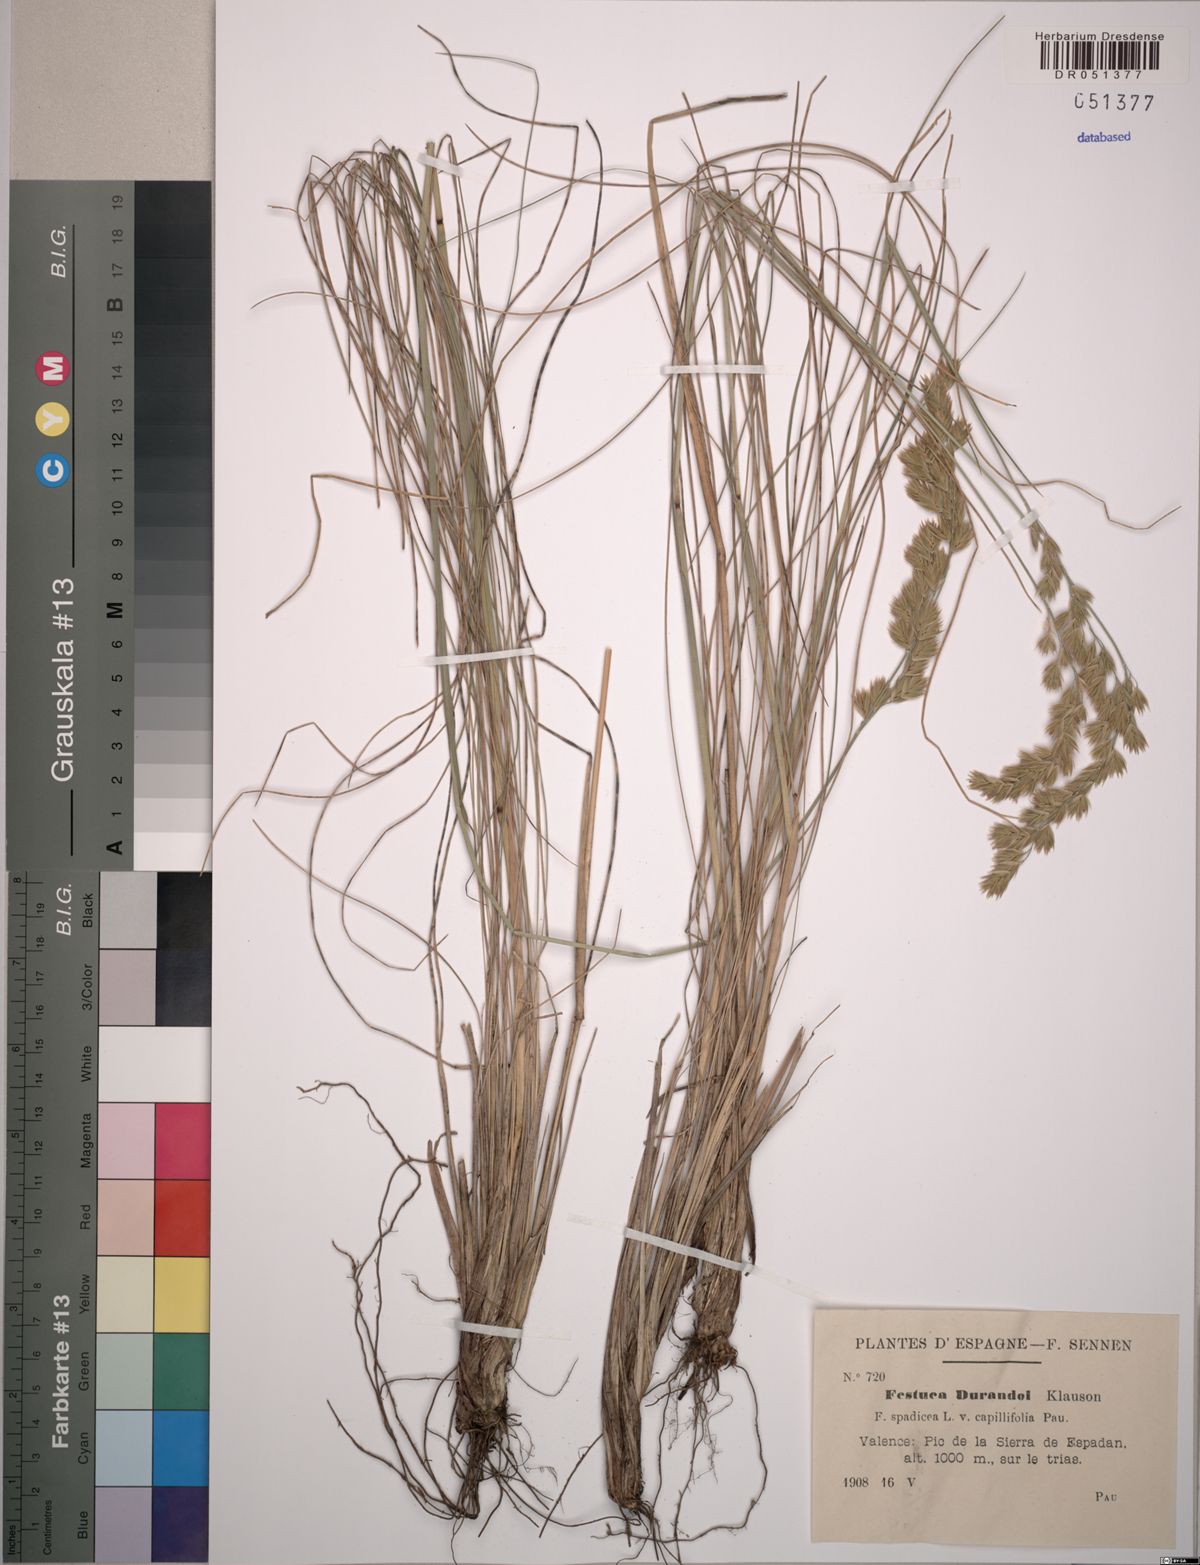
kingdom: Plantae
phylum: Tracheophyta
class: Liliopsida
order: Poales
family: Poaceae
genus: Patzkea
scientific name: Patzkea durandoi
